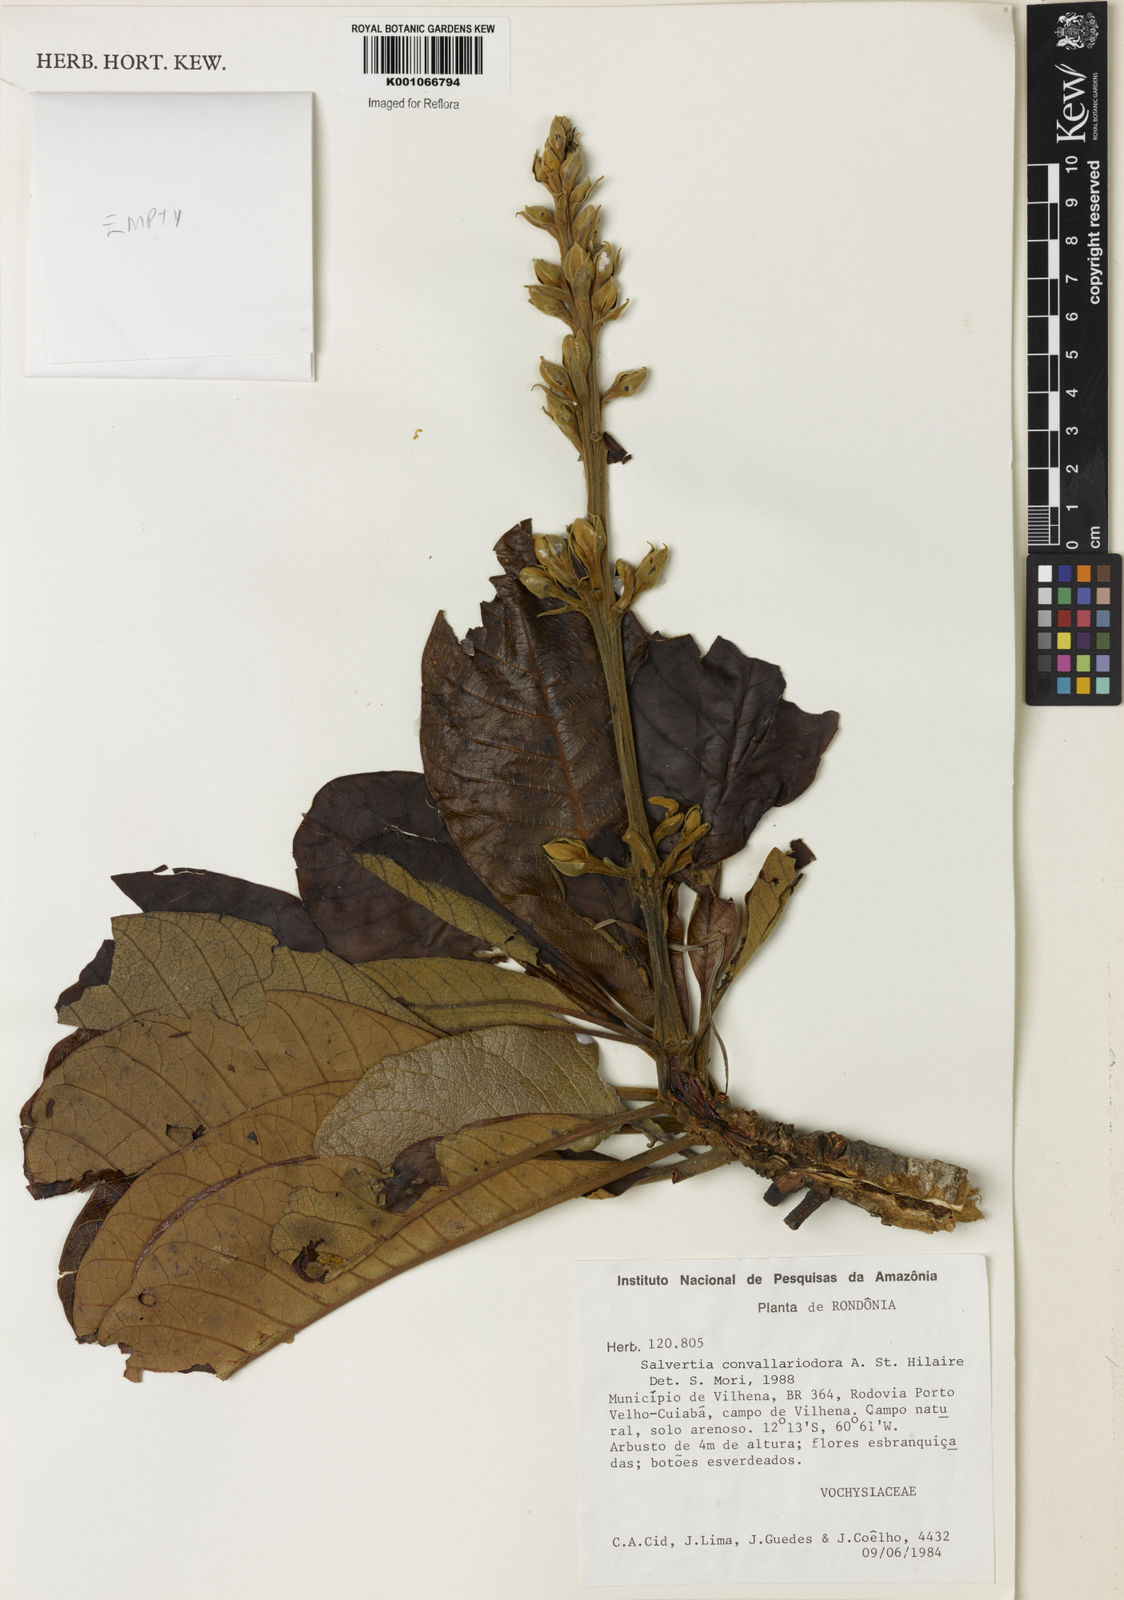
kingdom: Plantae
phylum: Tracheophyta
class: Magnoliopsida
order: Myrtales
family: Vochysiaceae
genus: Salvertia
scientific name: Salvertia convallariodora
